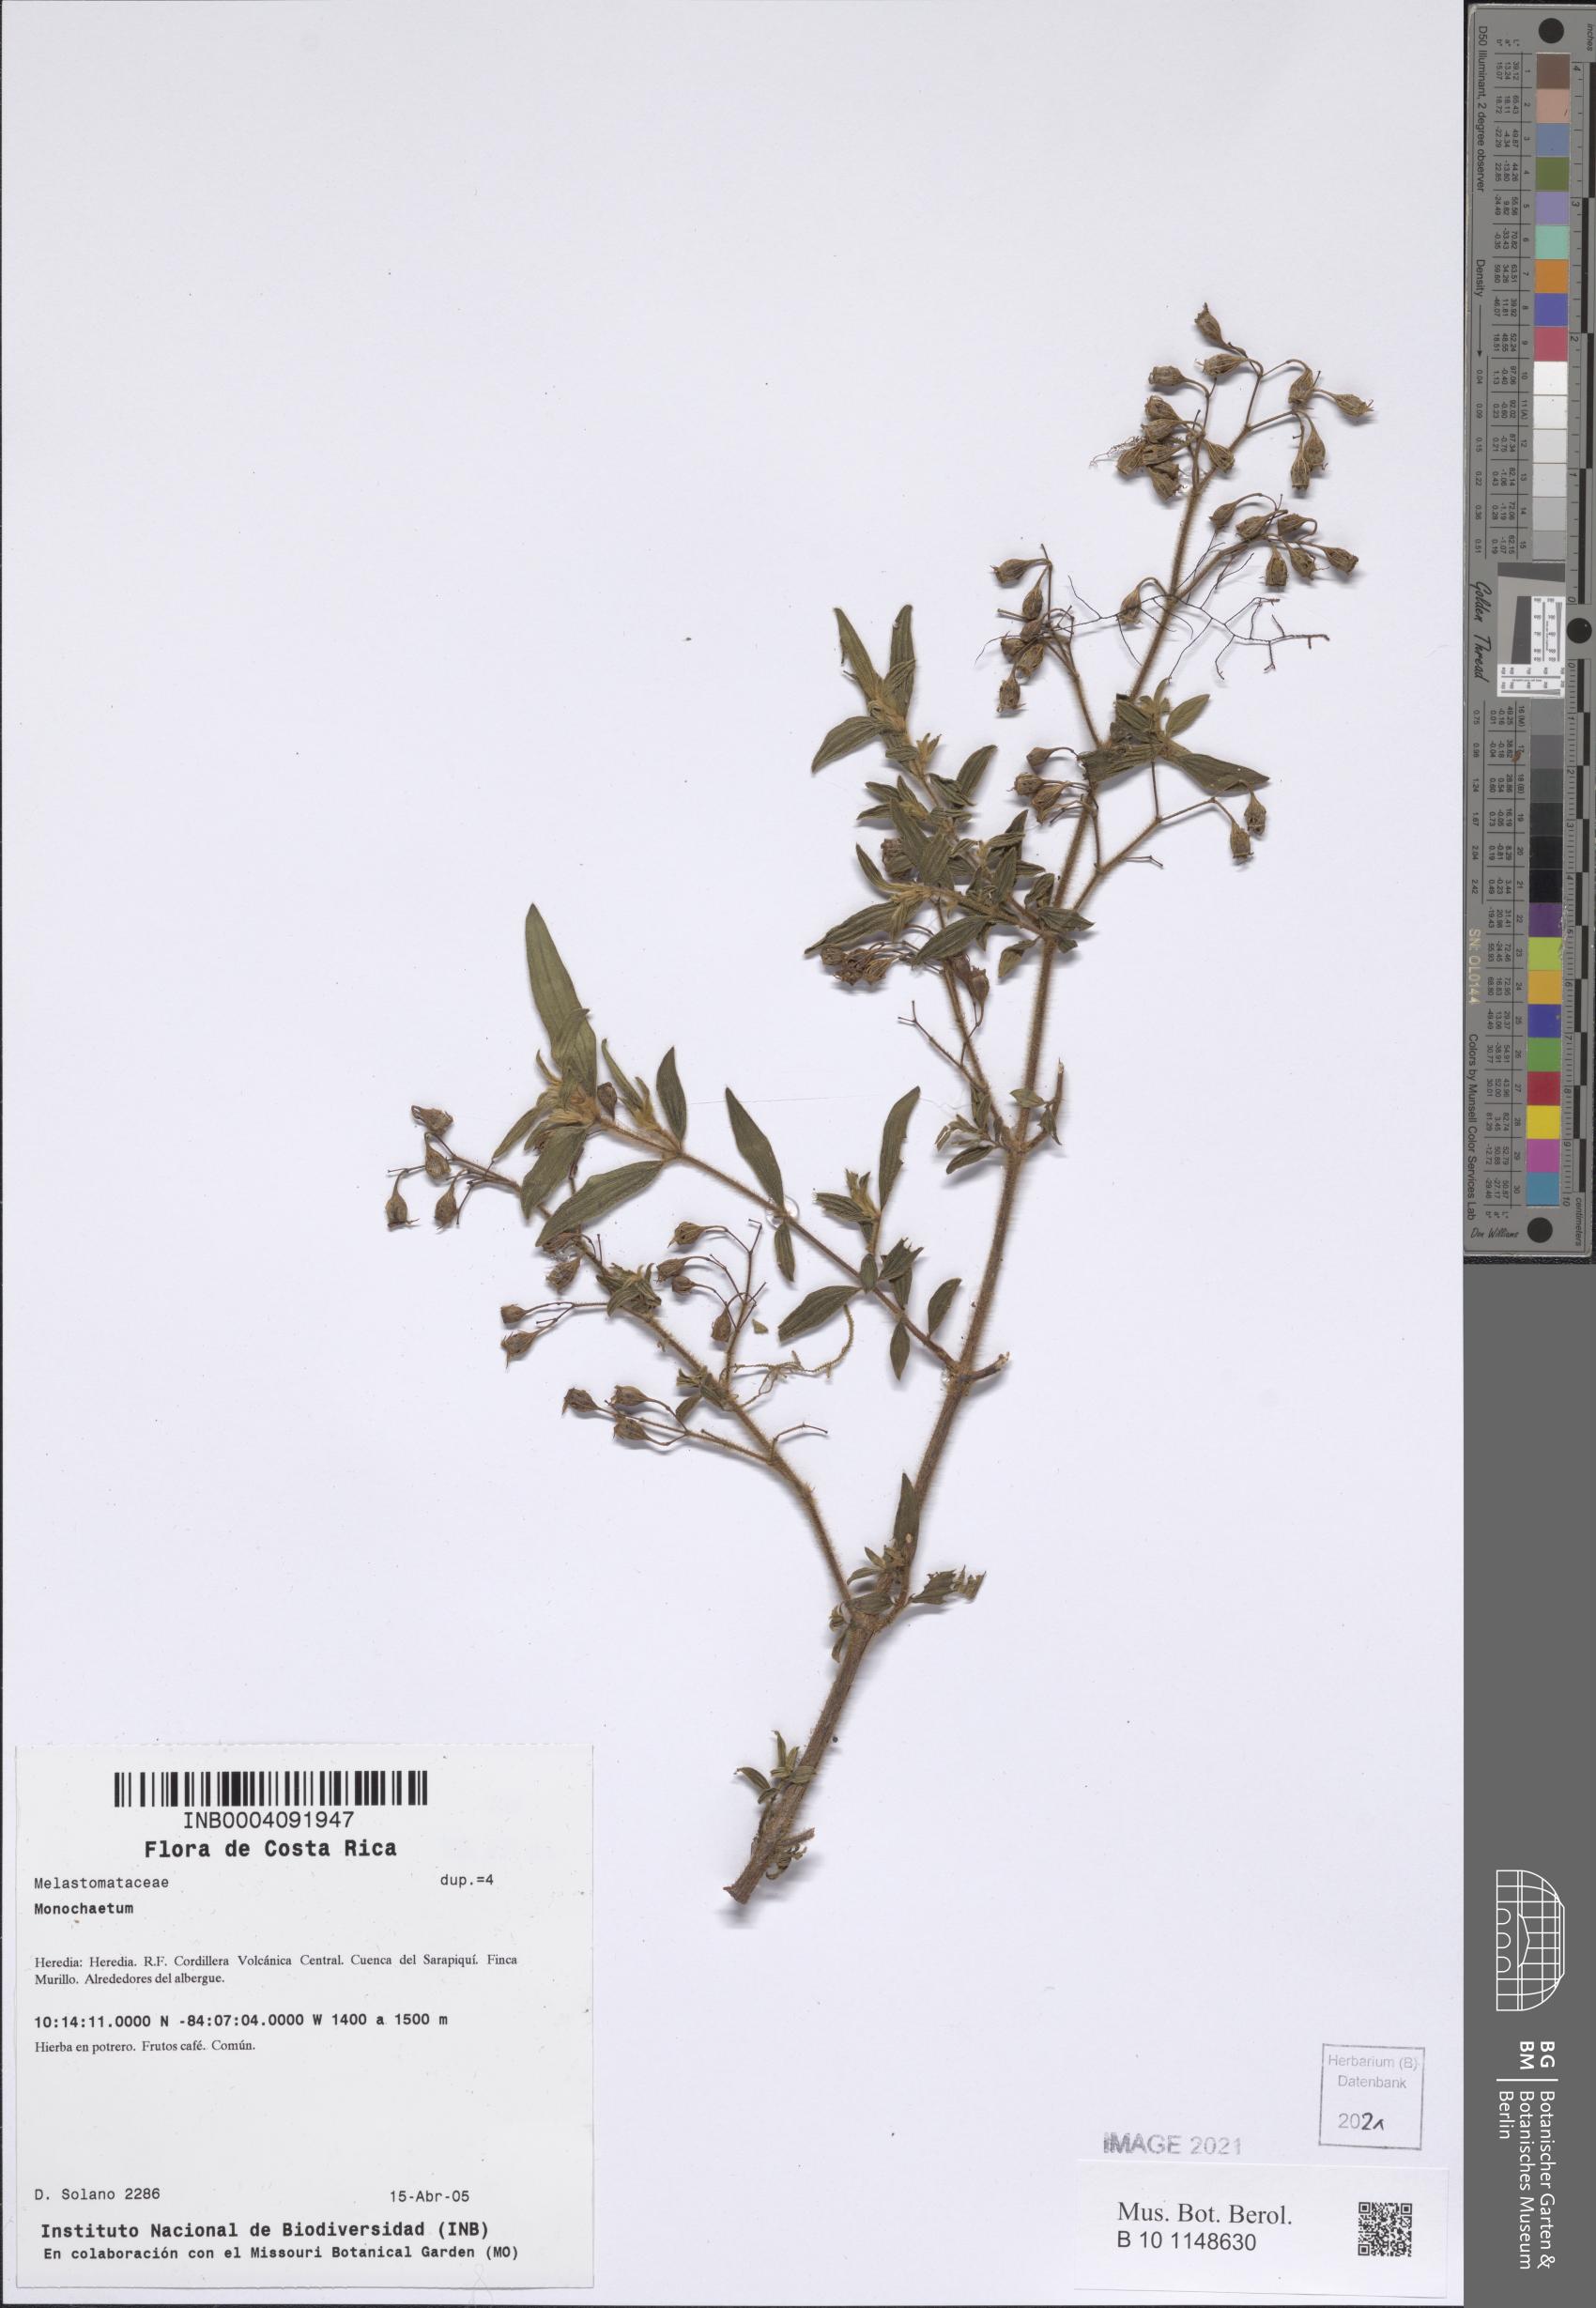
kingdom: Plantae
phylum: Tracheophyta
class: Magnoliopsida
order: Myrtales
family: Melastomataceae
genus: Monochaetum
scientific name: Monochaetum
